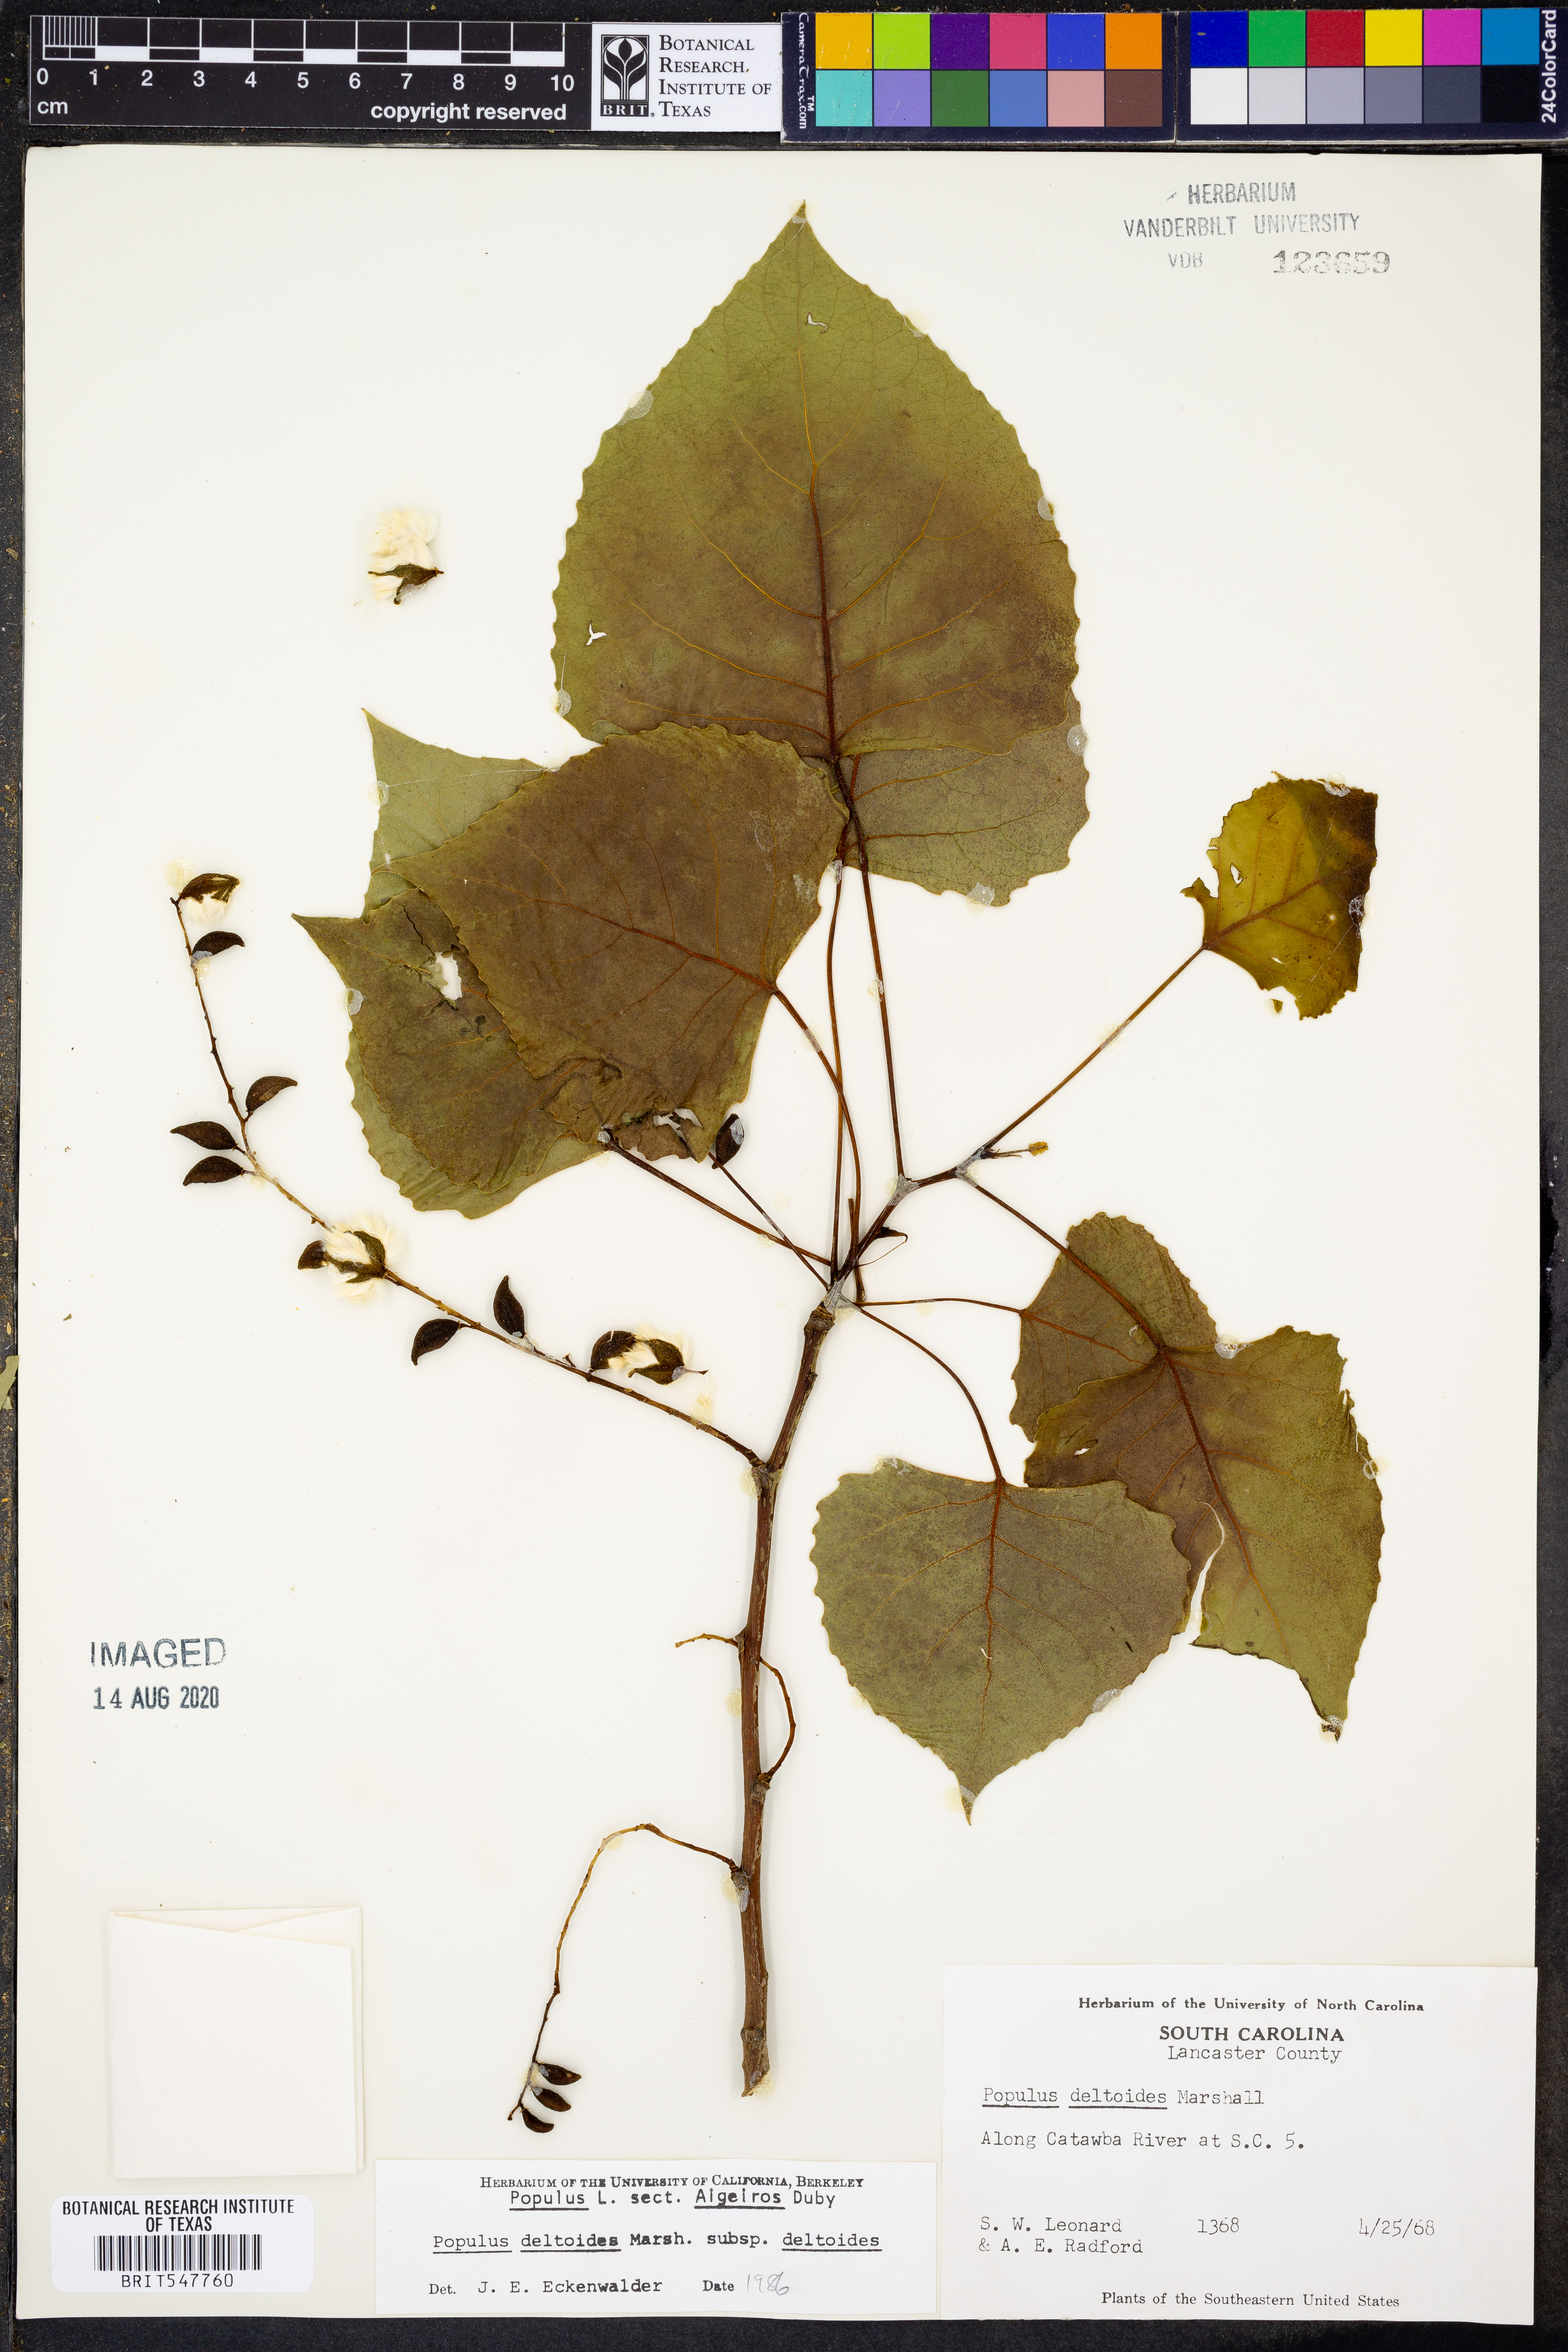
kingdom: Plantae
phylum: Tracheophyta
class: Magnoliopsida
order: Malpighiales
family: Salicaceae
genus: Populus
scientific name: Populus deltoides
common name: Eastern cottonwood
